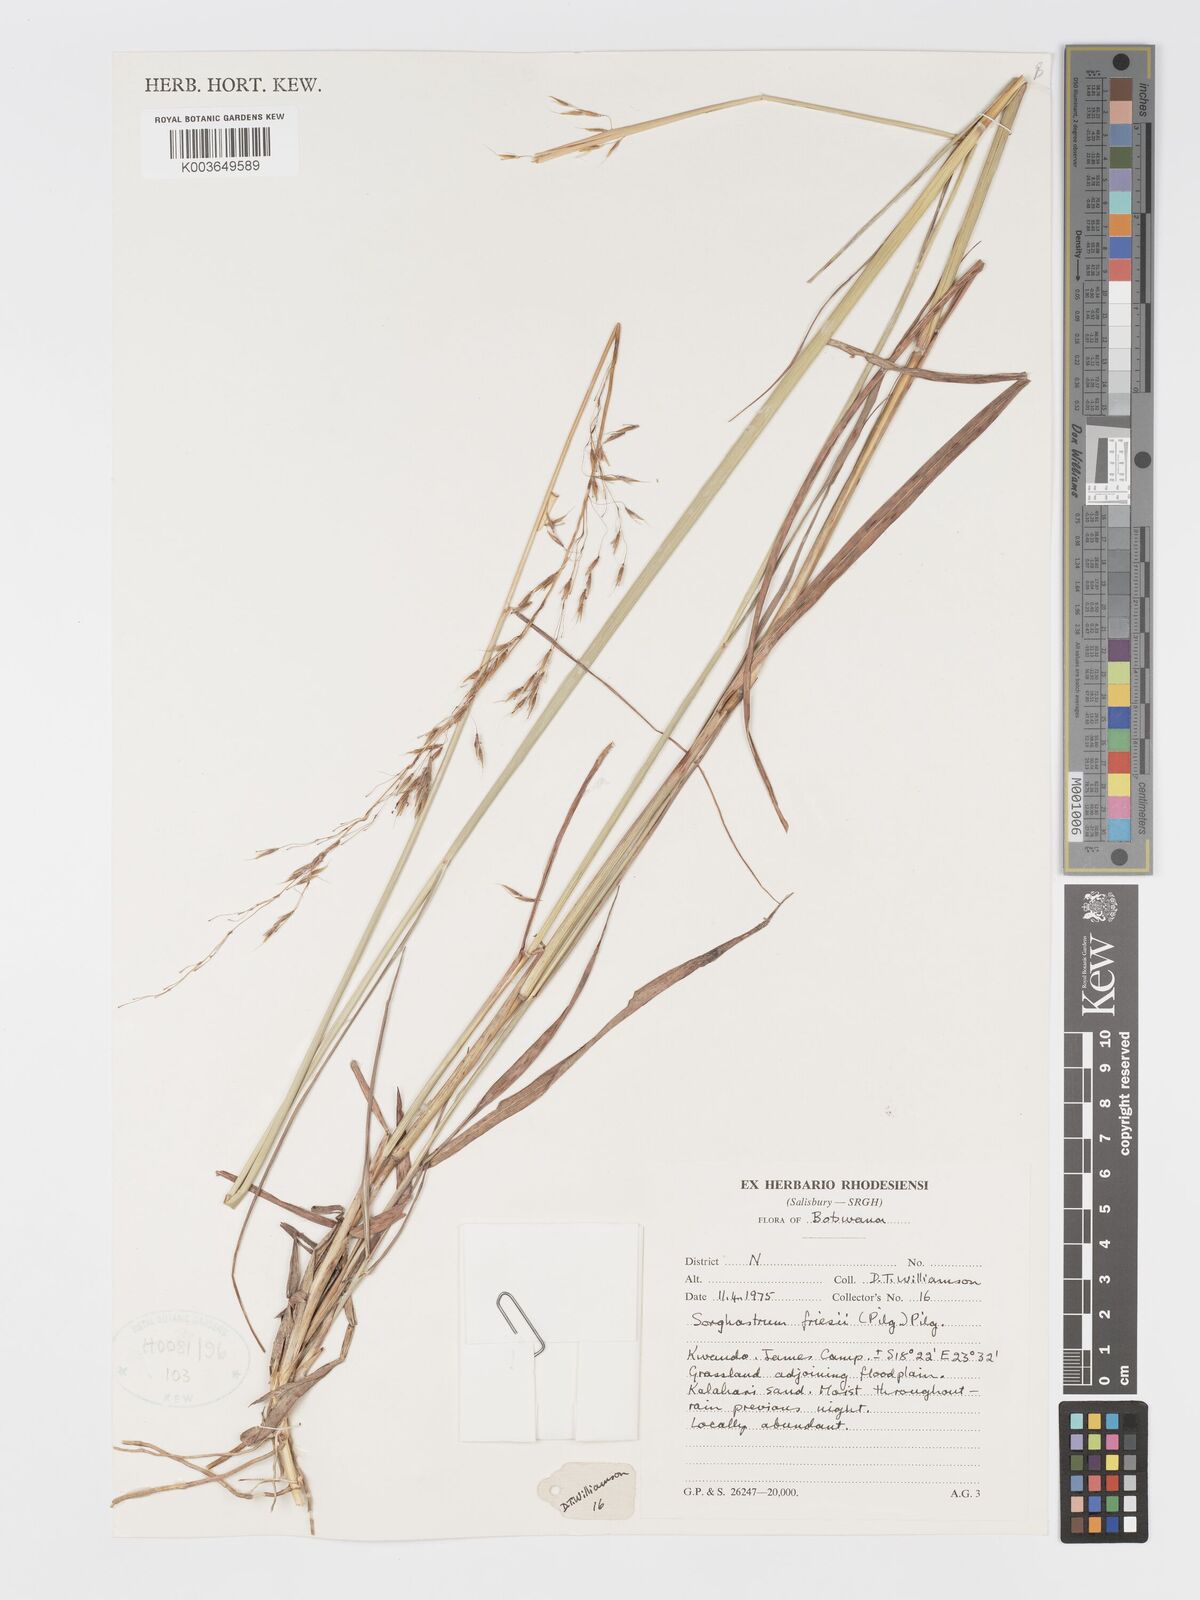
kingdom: Plantae
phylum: Tracheophyta
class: Liliopsida
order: Poales
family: Poaceae
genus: Sorghastrum
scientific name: Sorghastrum nudipes
